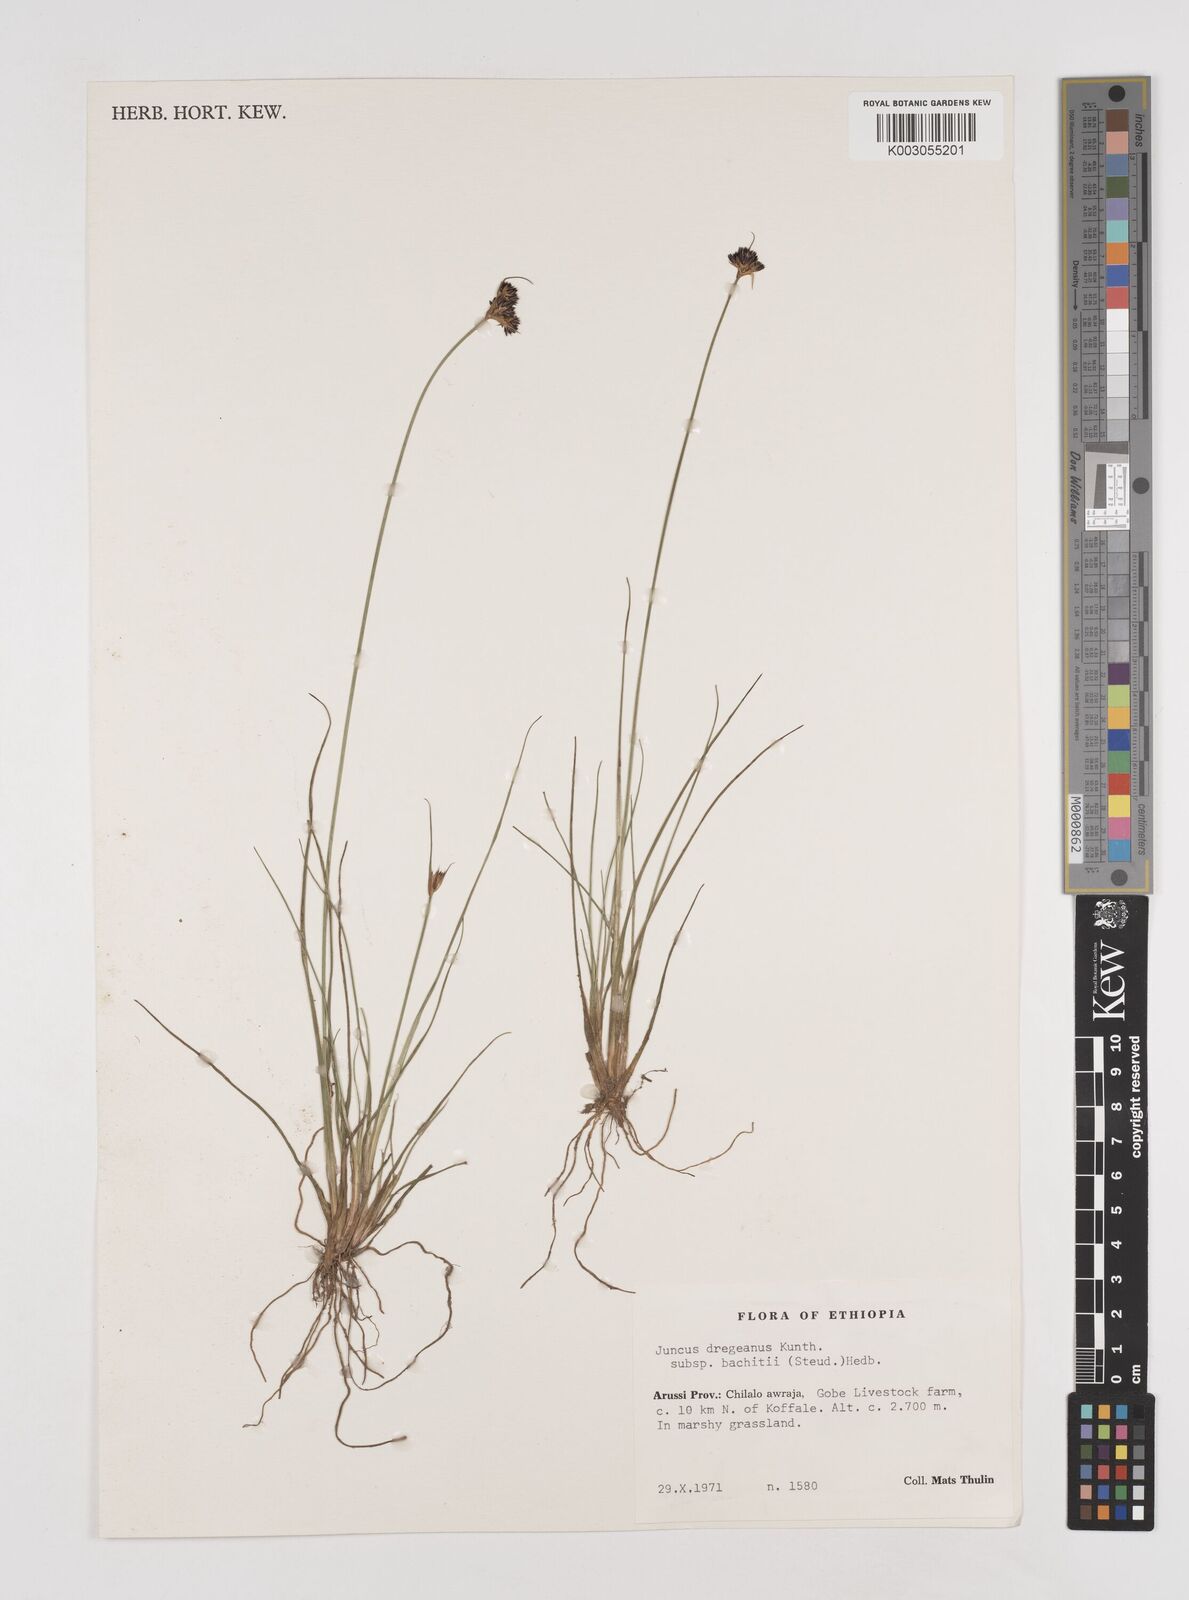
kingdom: Plantae
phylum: Tracheophyta
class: Liliopsida
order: Poales
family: Juncaceae
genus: Juncus
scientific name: Juncus dregeanus
